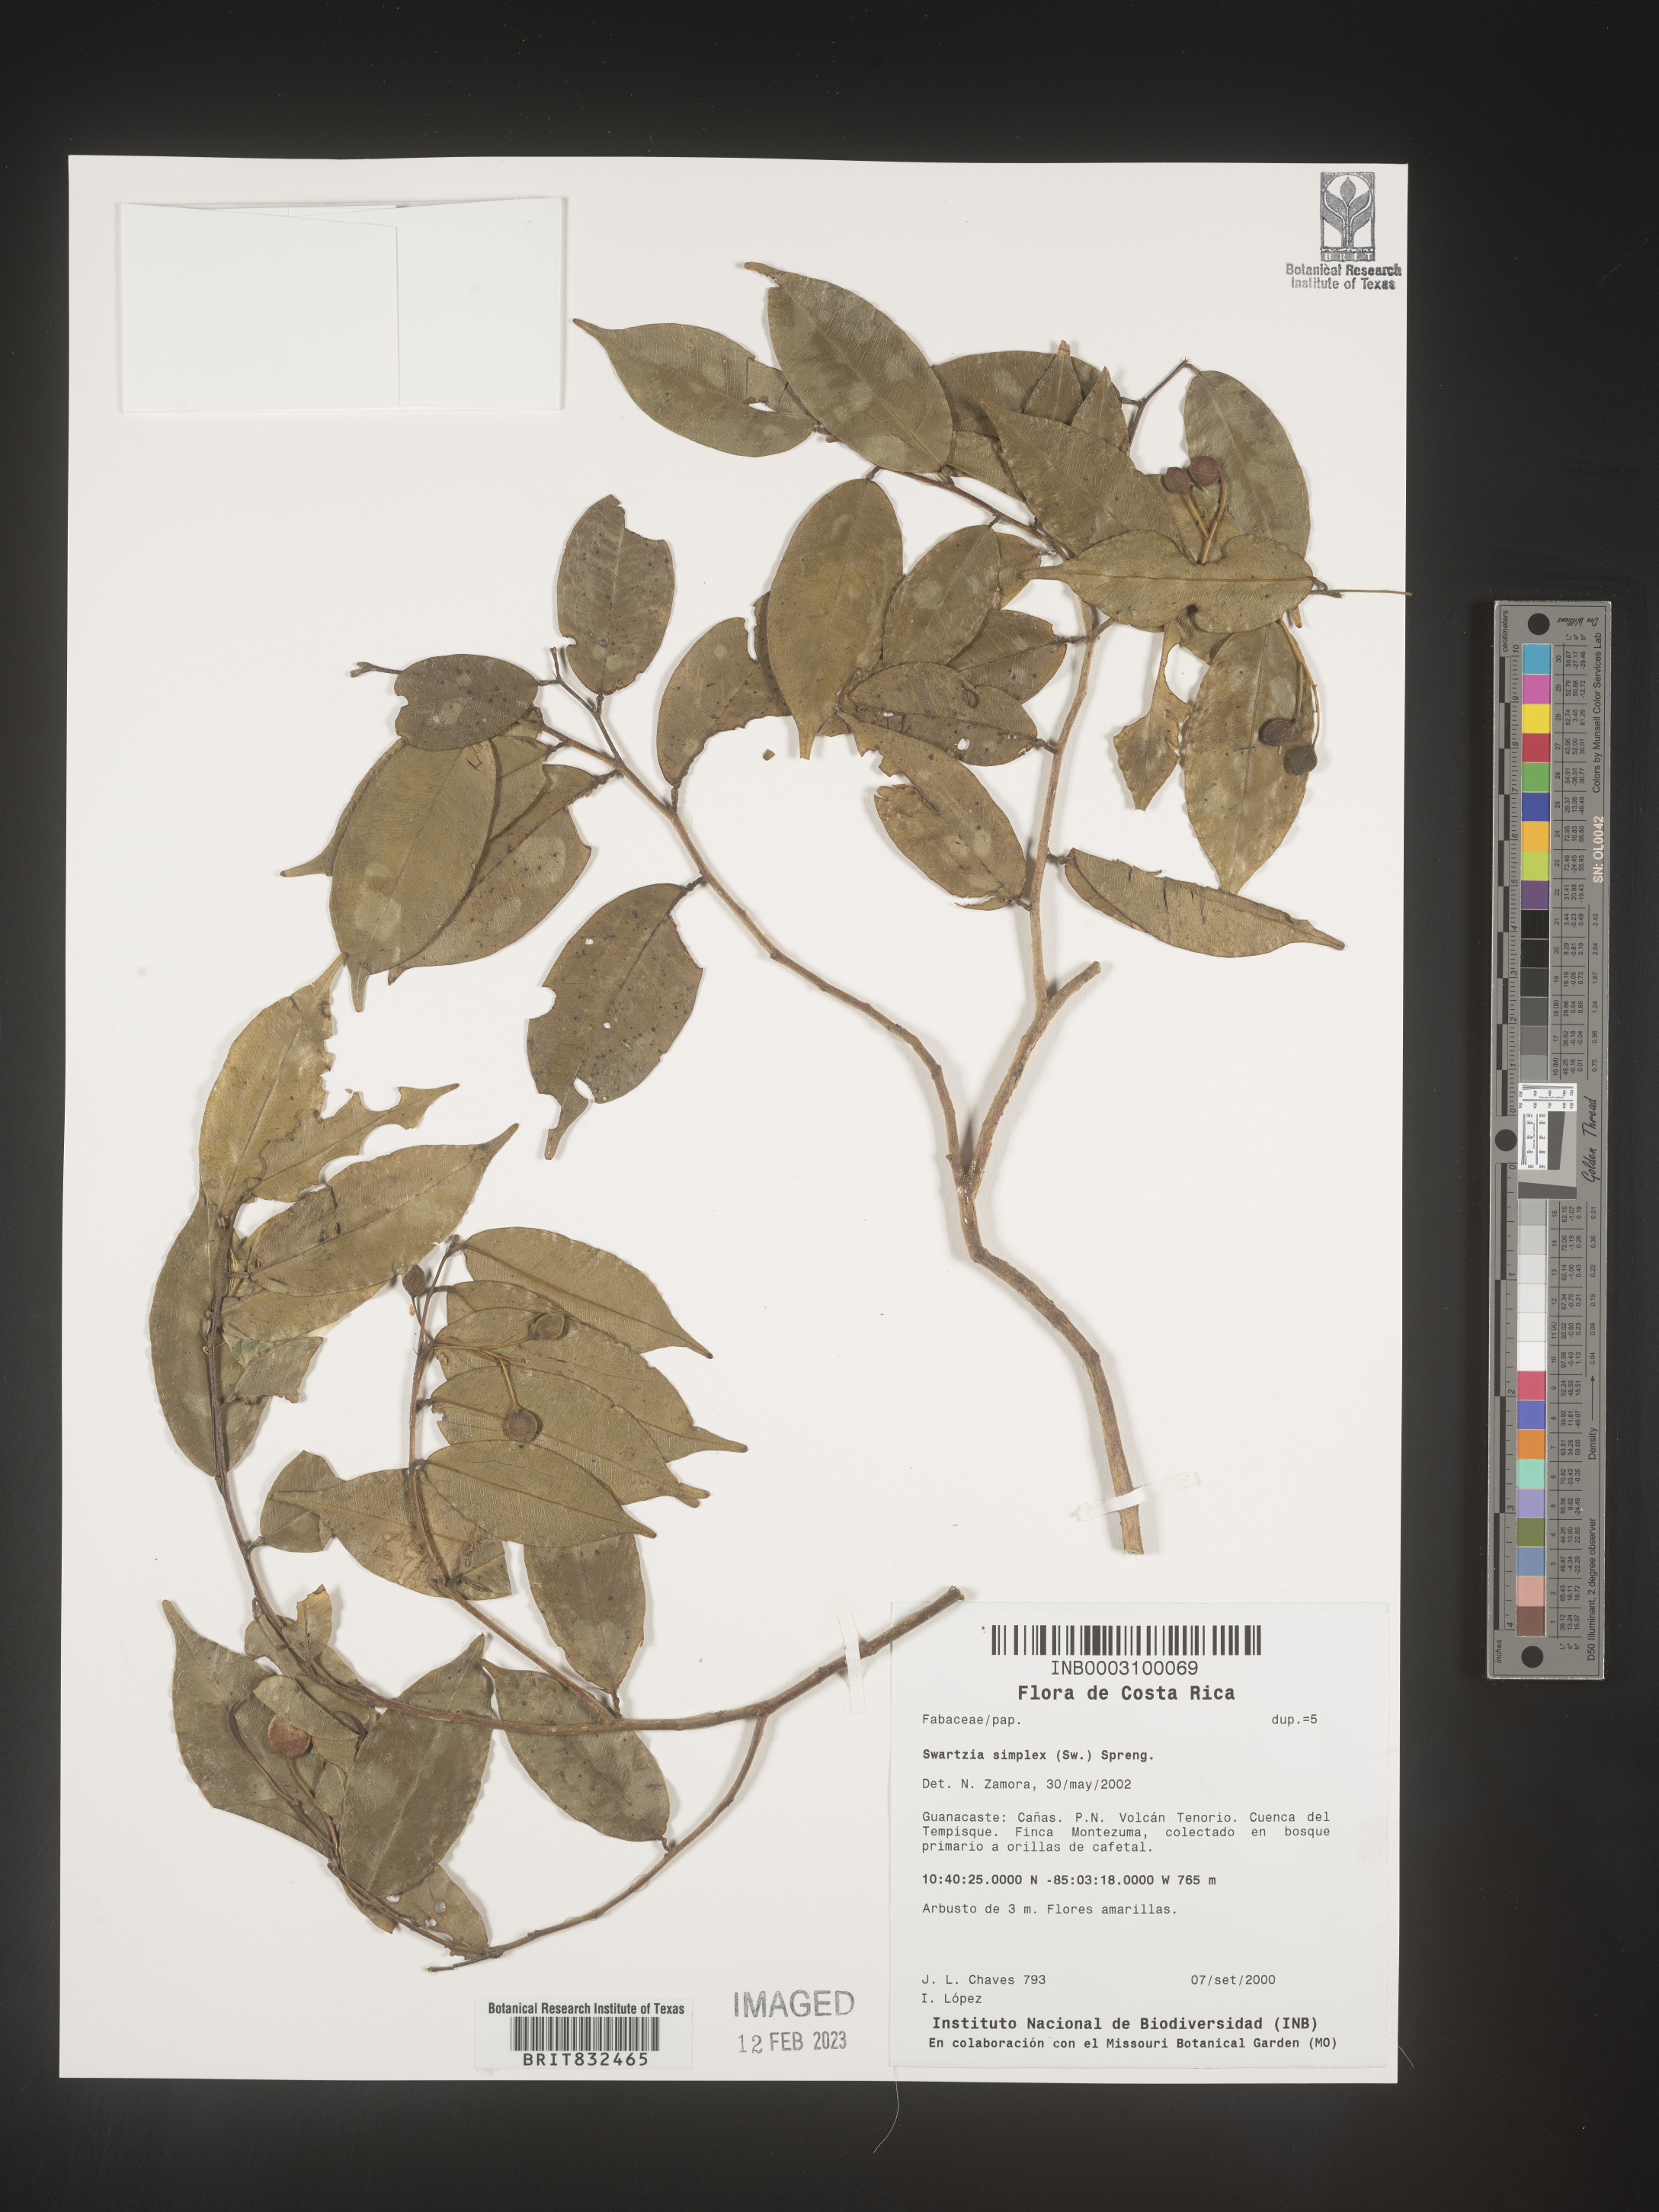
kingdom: Plantae
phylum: Tracheophyta
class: Magnoliopsida
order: Fabales
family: Fabaceae
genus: Swartzia
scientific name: Swartzia
